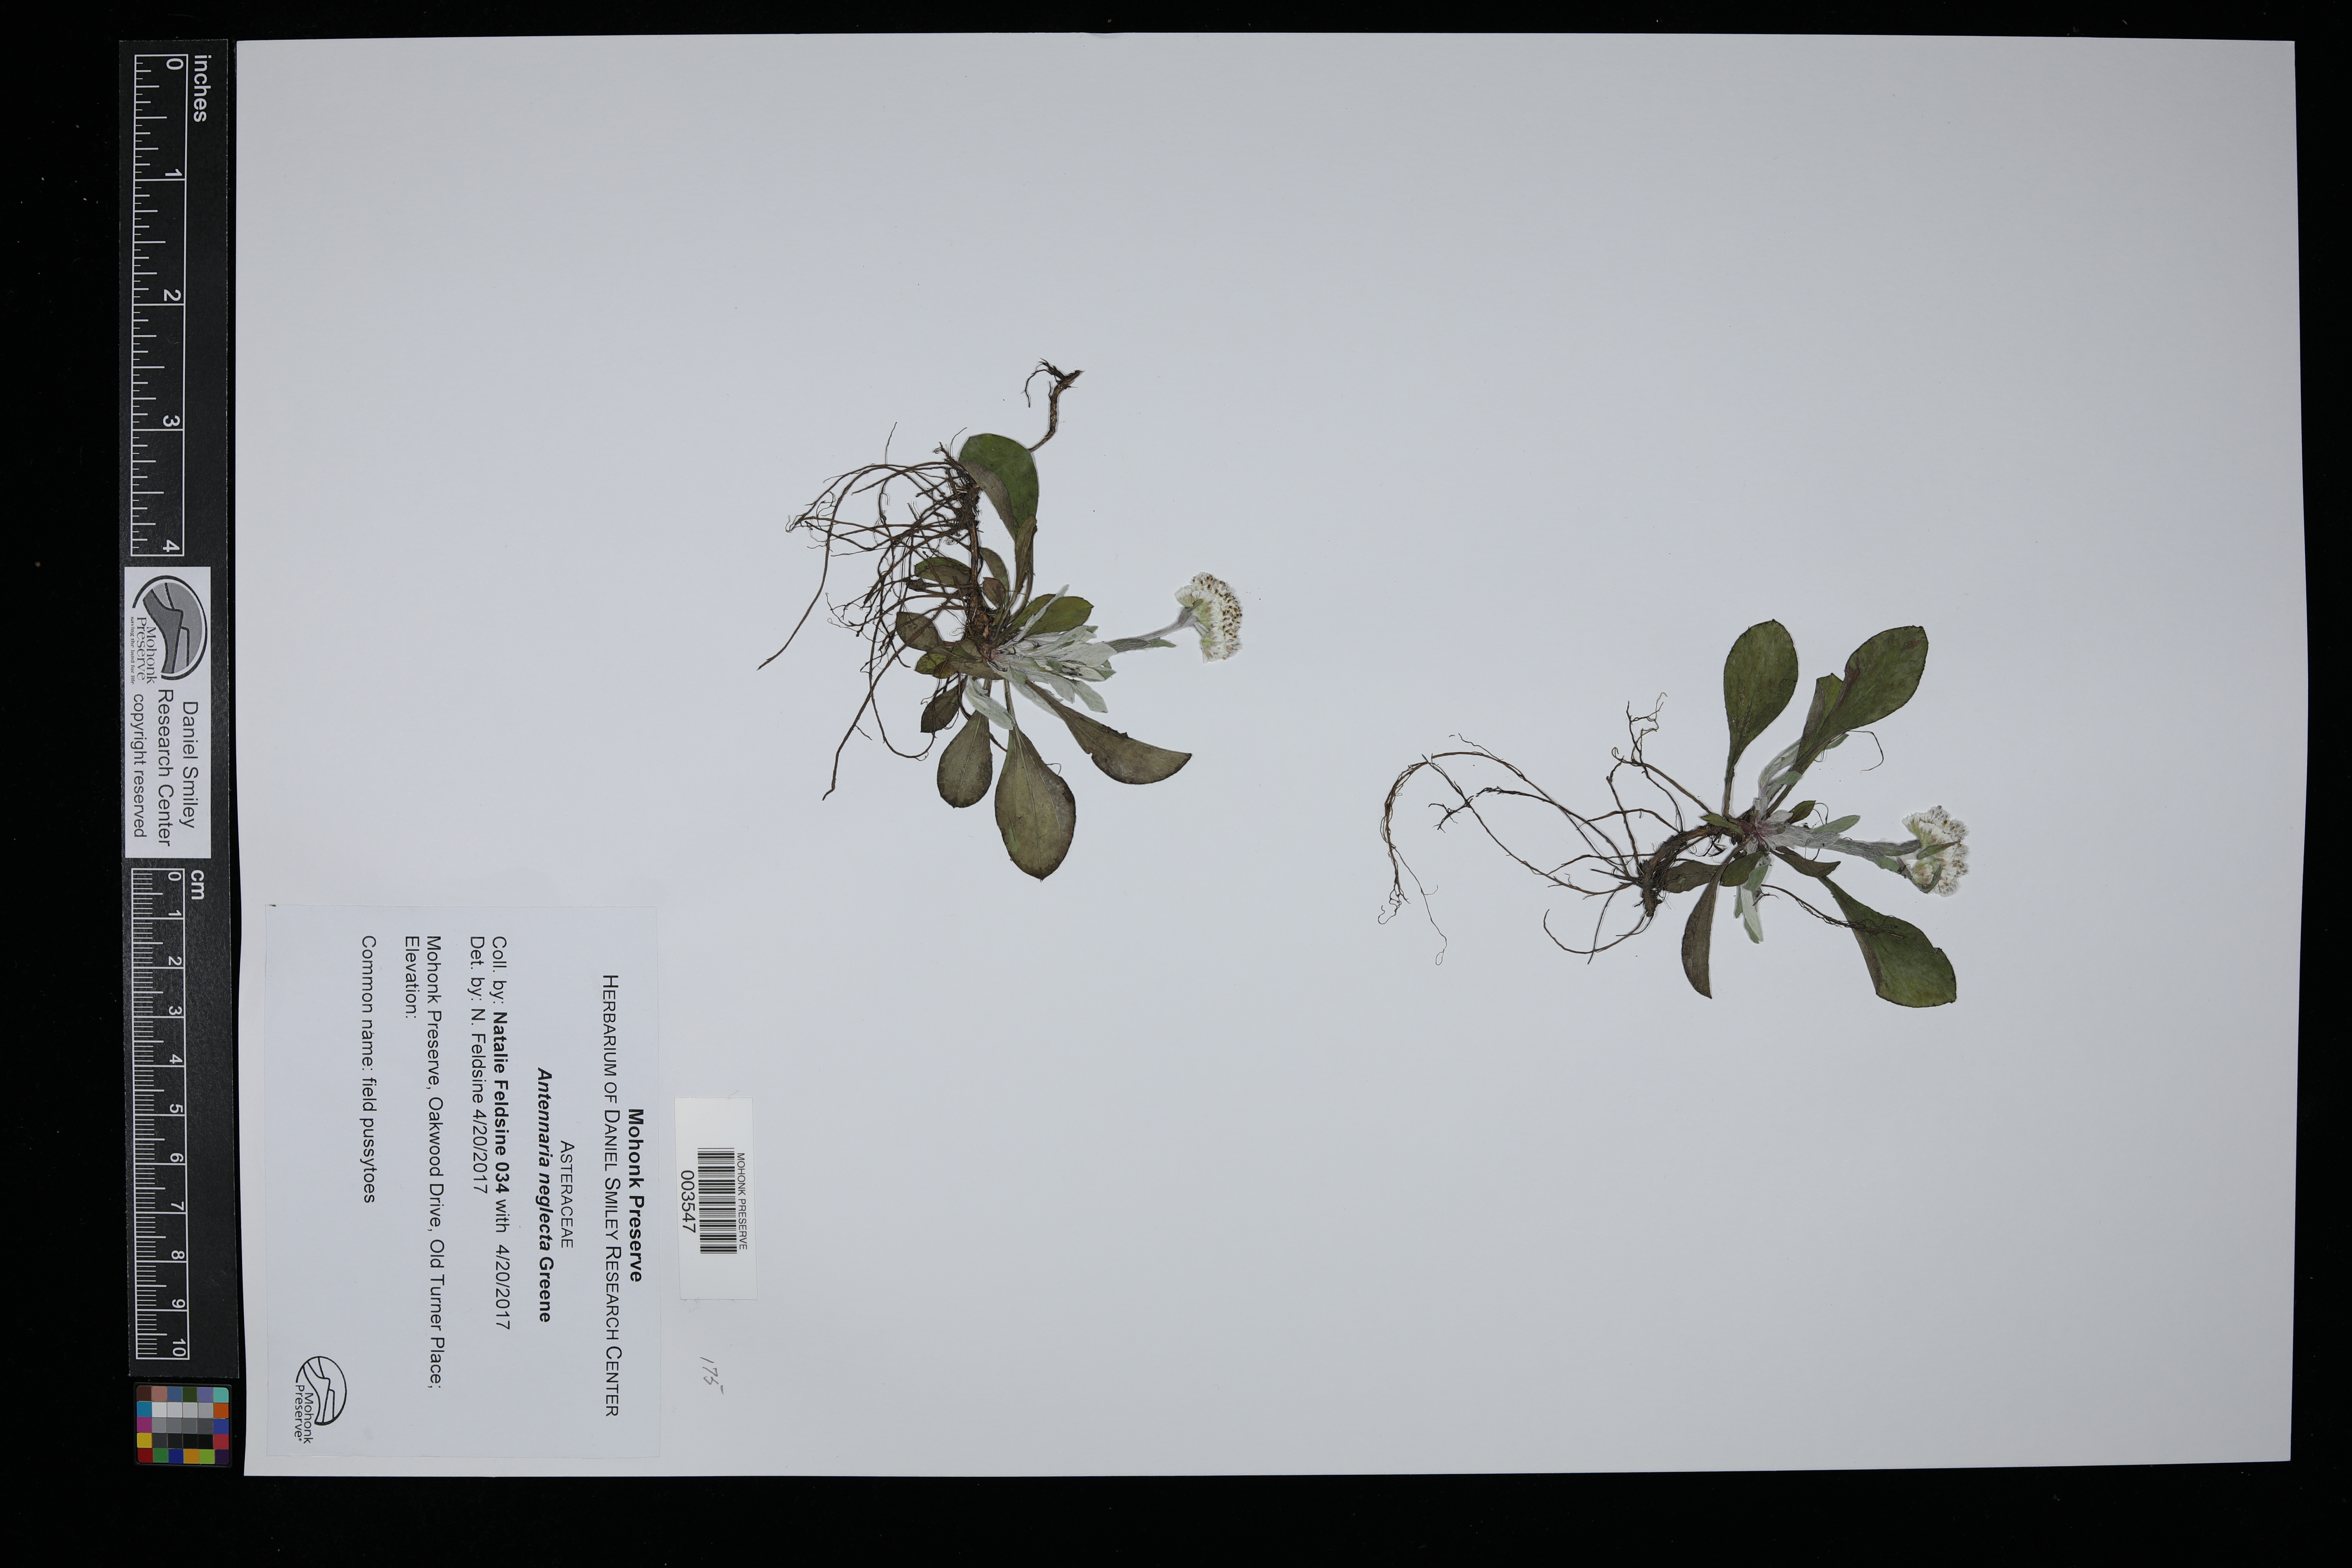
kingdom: Plantae
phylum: Tracheophyta
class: Magnoliopsida
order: Asterales
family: Asteraceae
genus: Antennaria
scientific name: Antennaria neglecta
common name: Field pussytoes
